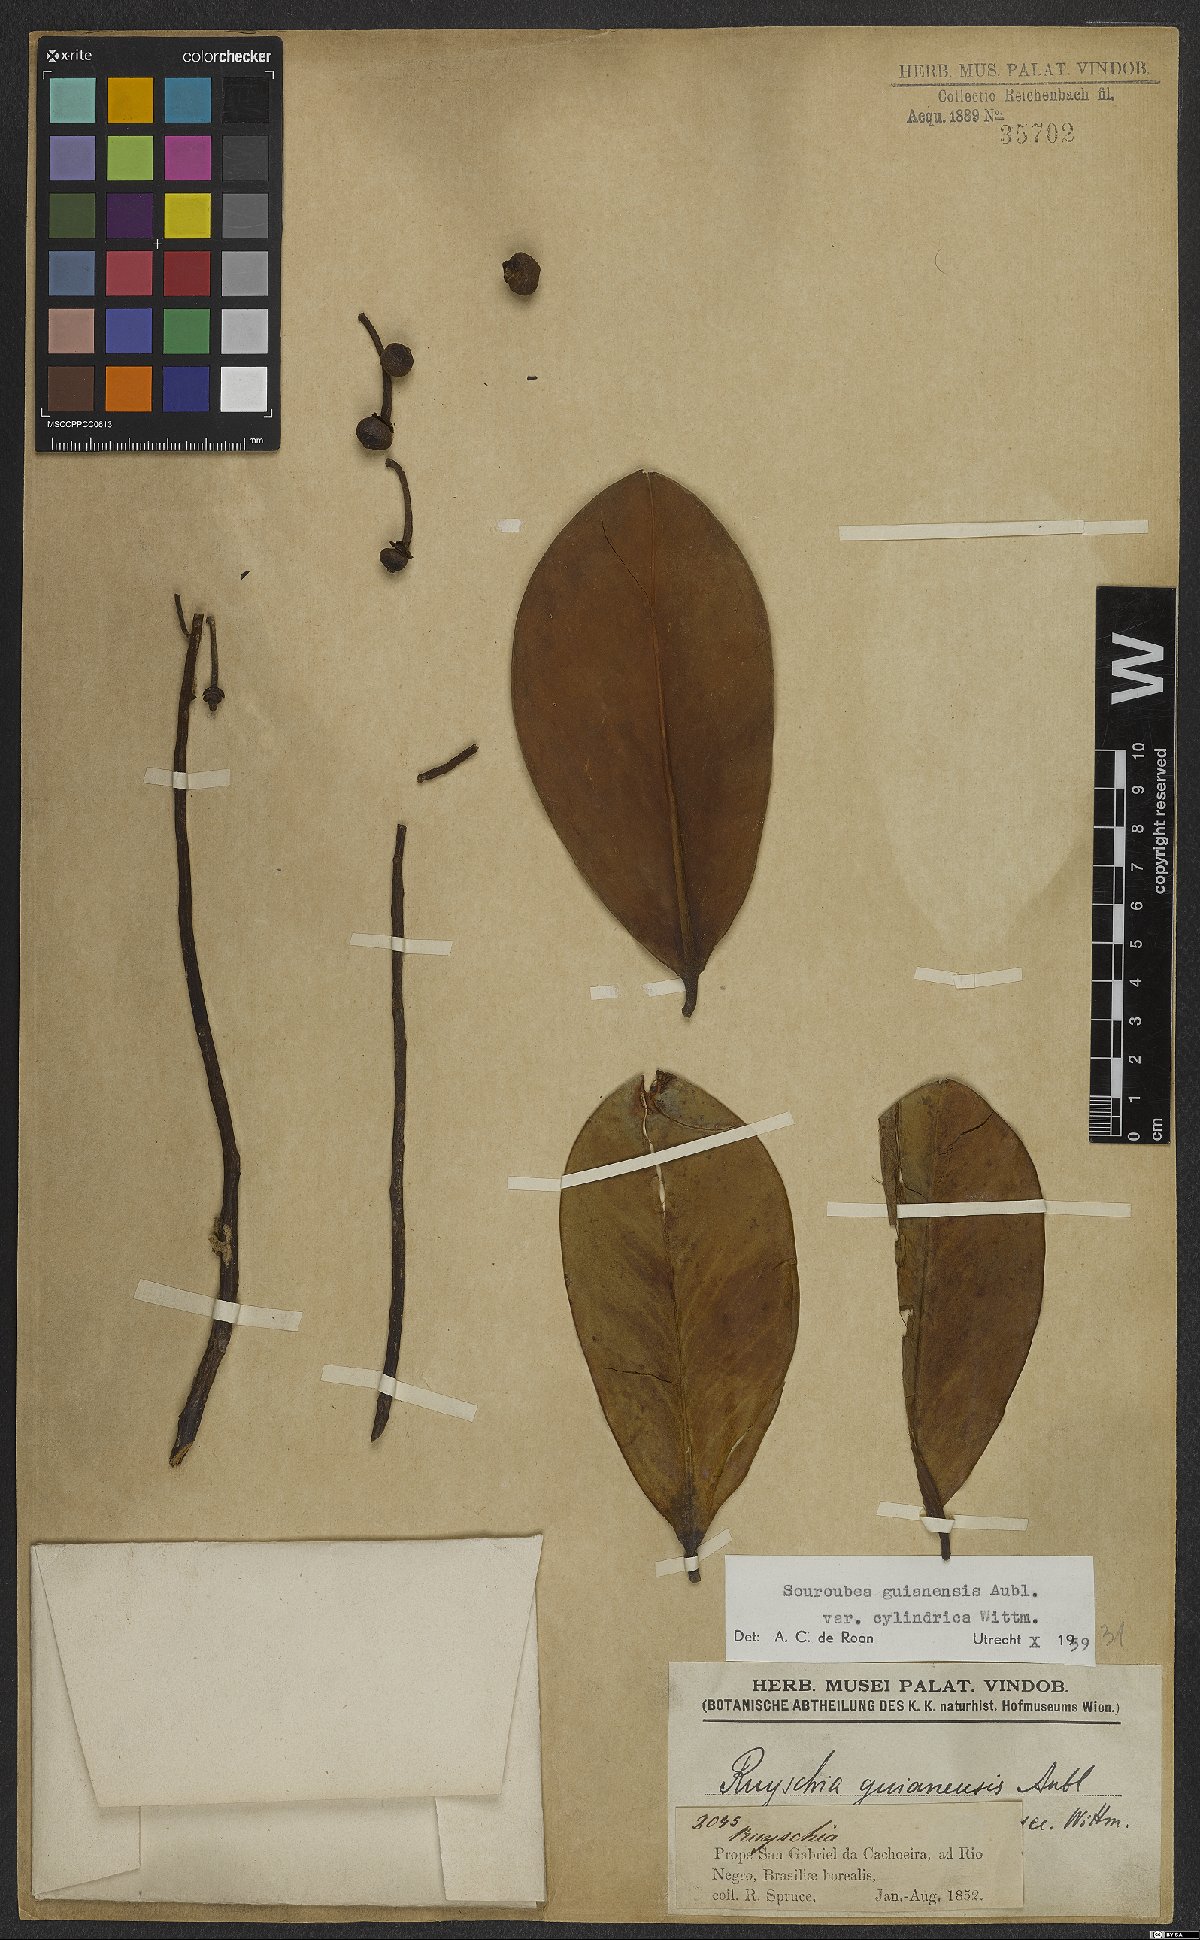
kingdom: Plantae
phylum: Tracheophyta
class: Magnoliopsida
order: Ericales
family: Marcgraviaceae
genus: Souroubea
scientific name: Souroubea guianensis
